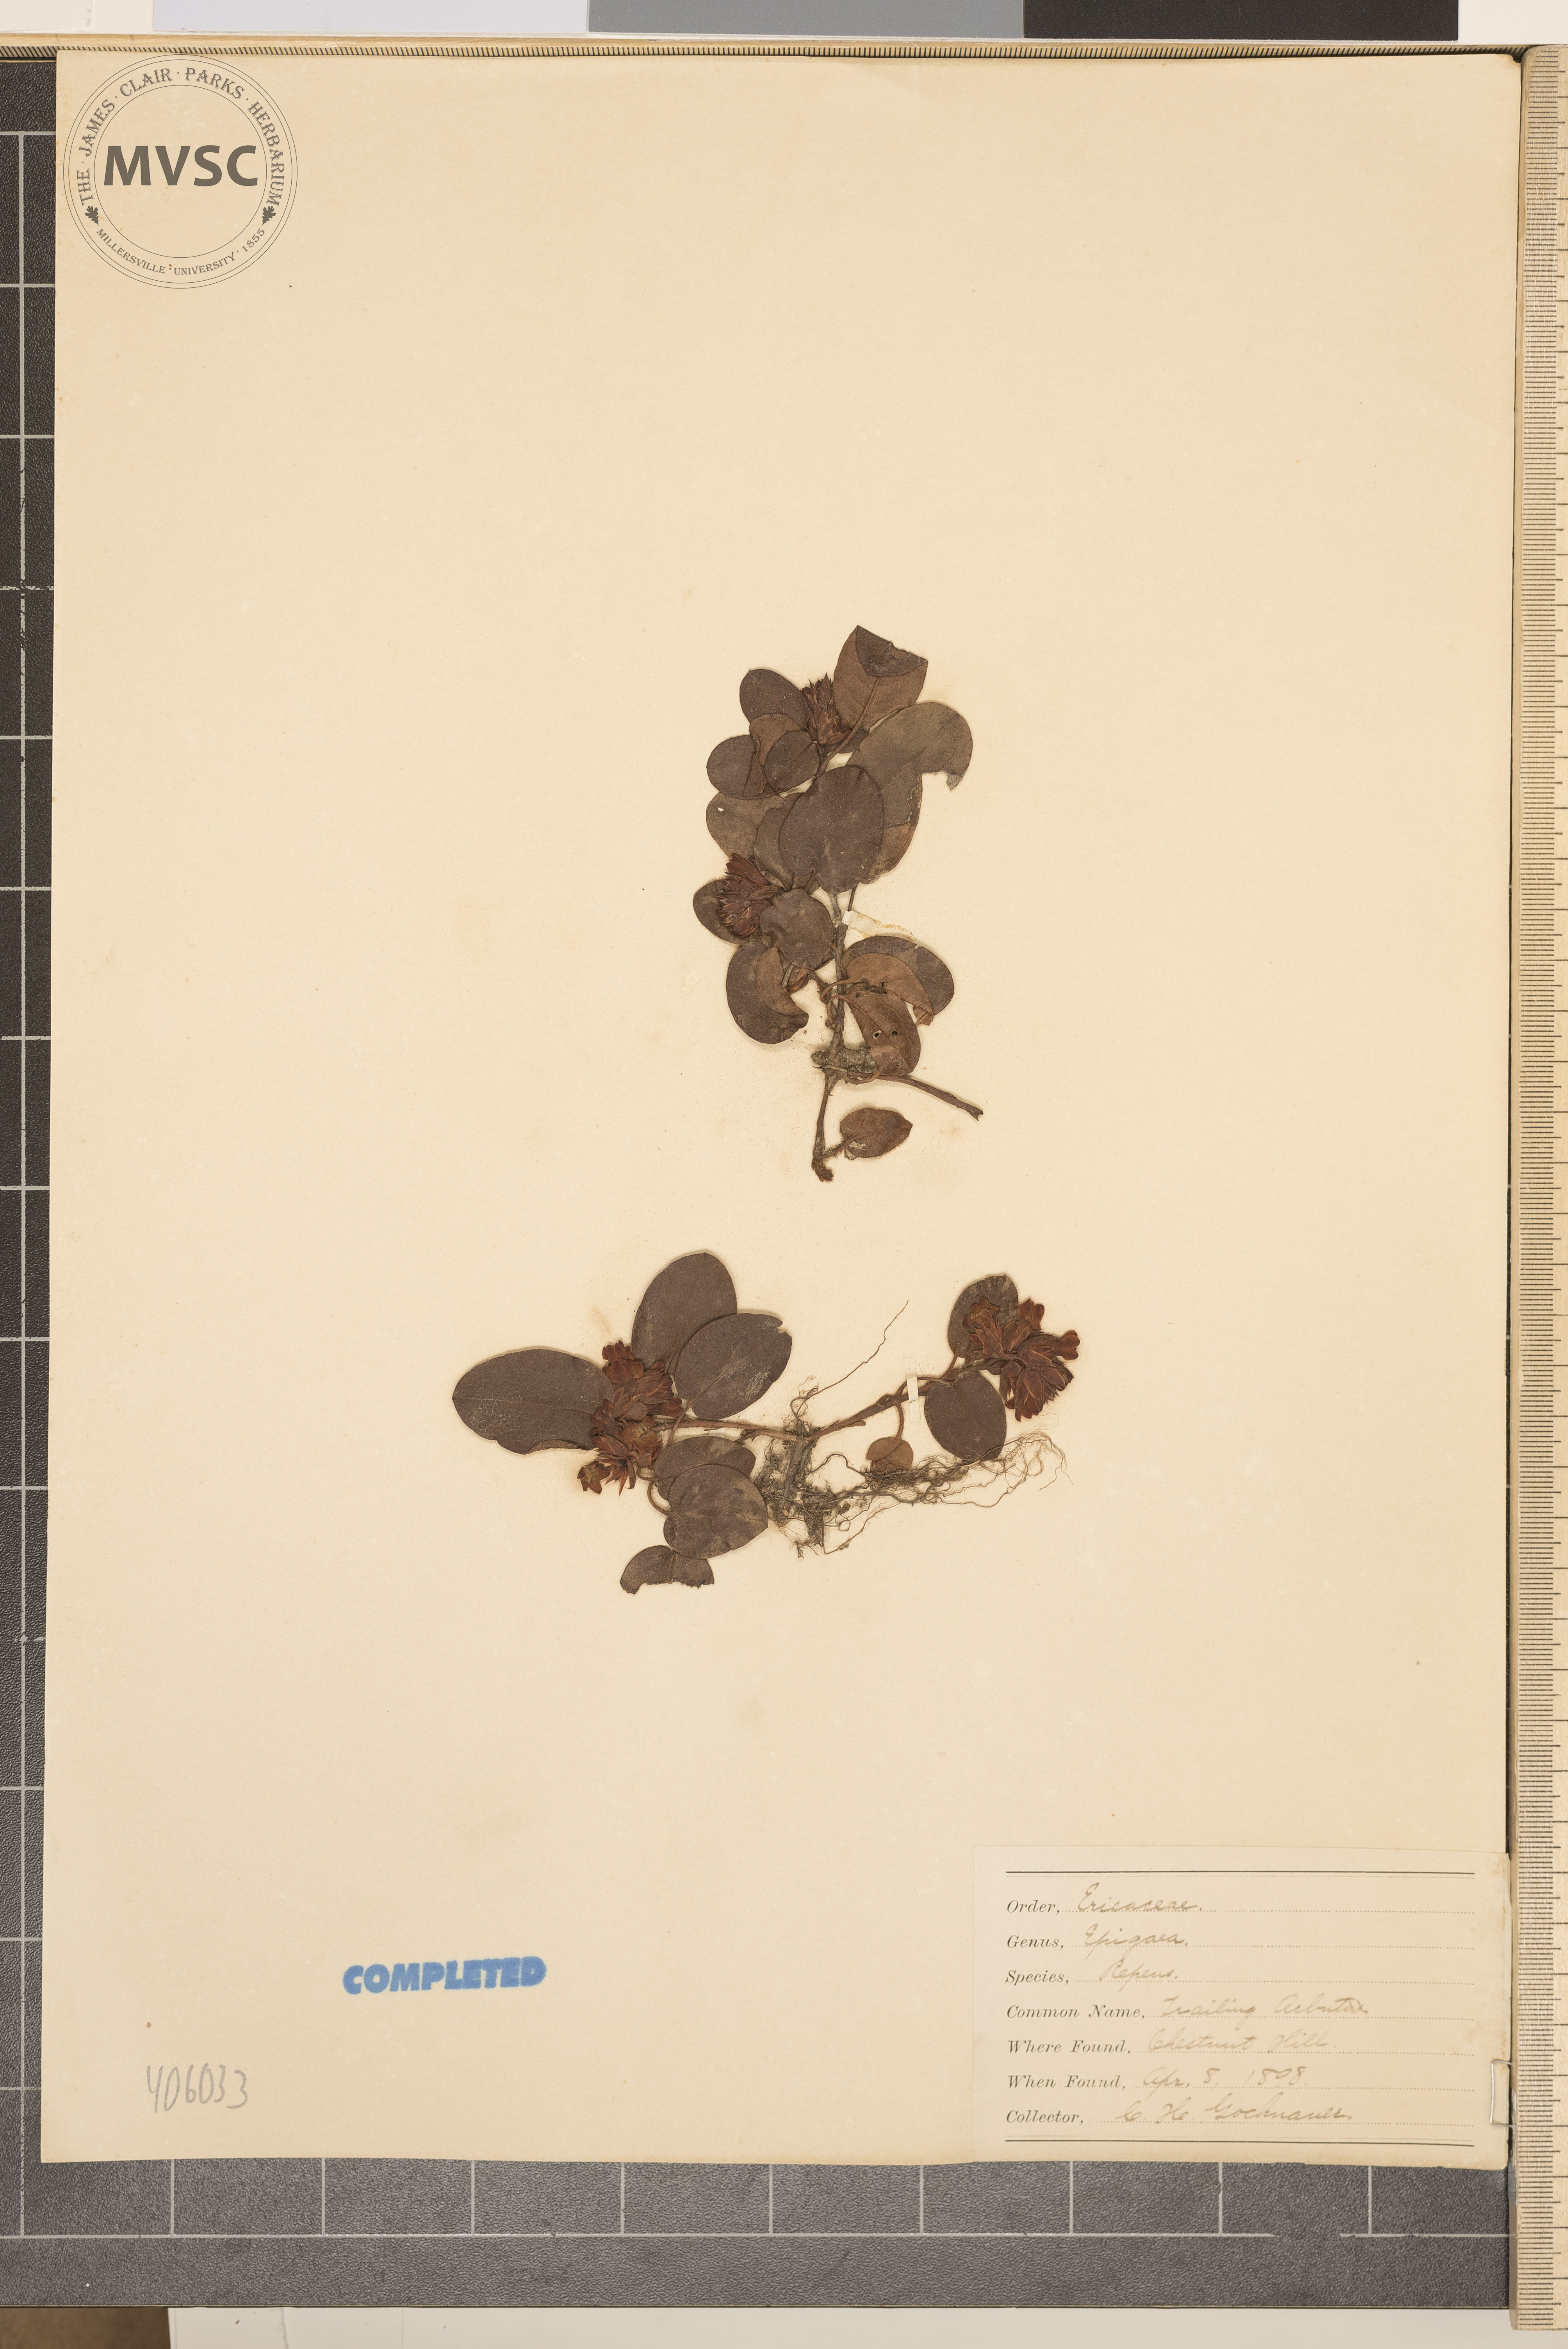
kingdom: Plantae
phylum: Tracheophyta
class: Magnoliopsida
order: Ericales
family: Ericaceae
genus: Epigaea
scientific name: Epigaea repens
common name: Gravelroot
